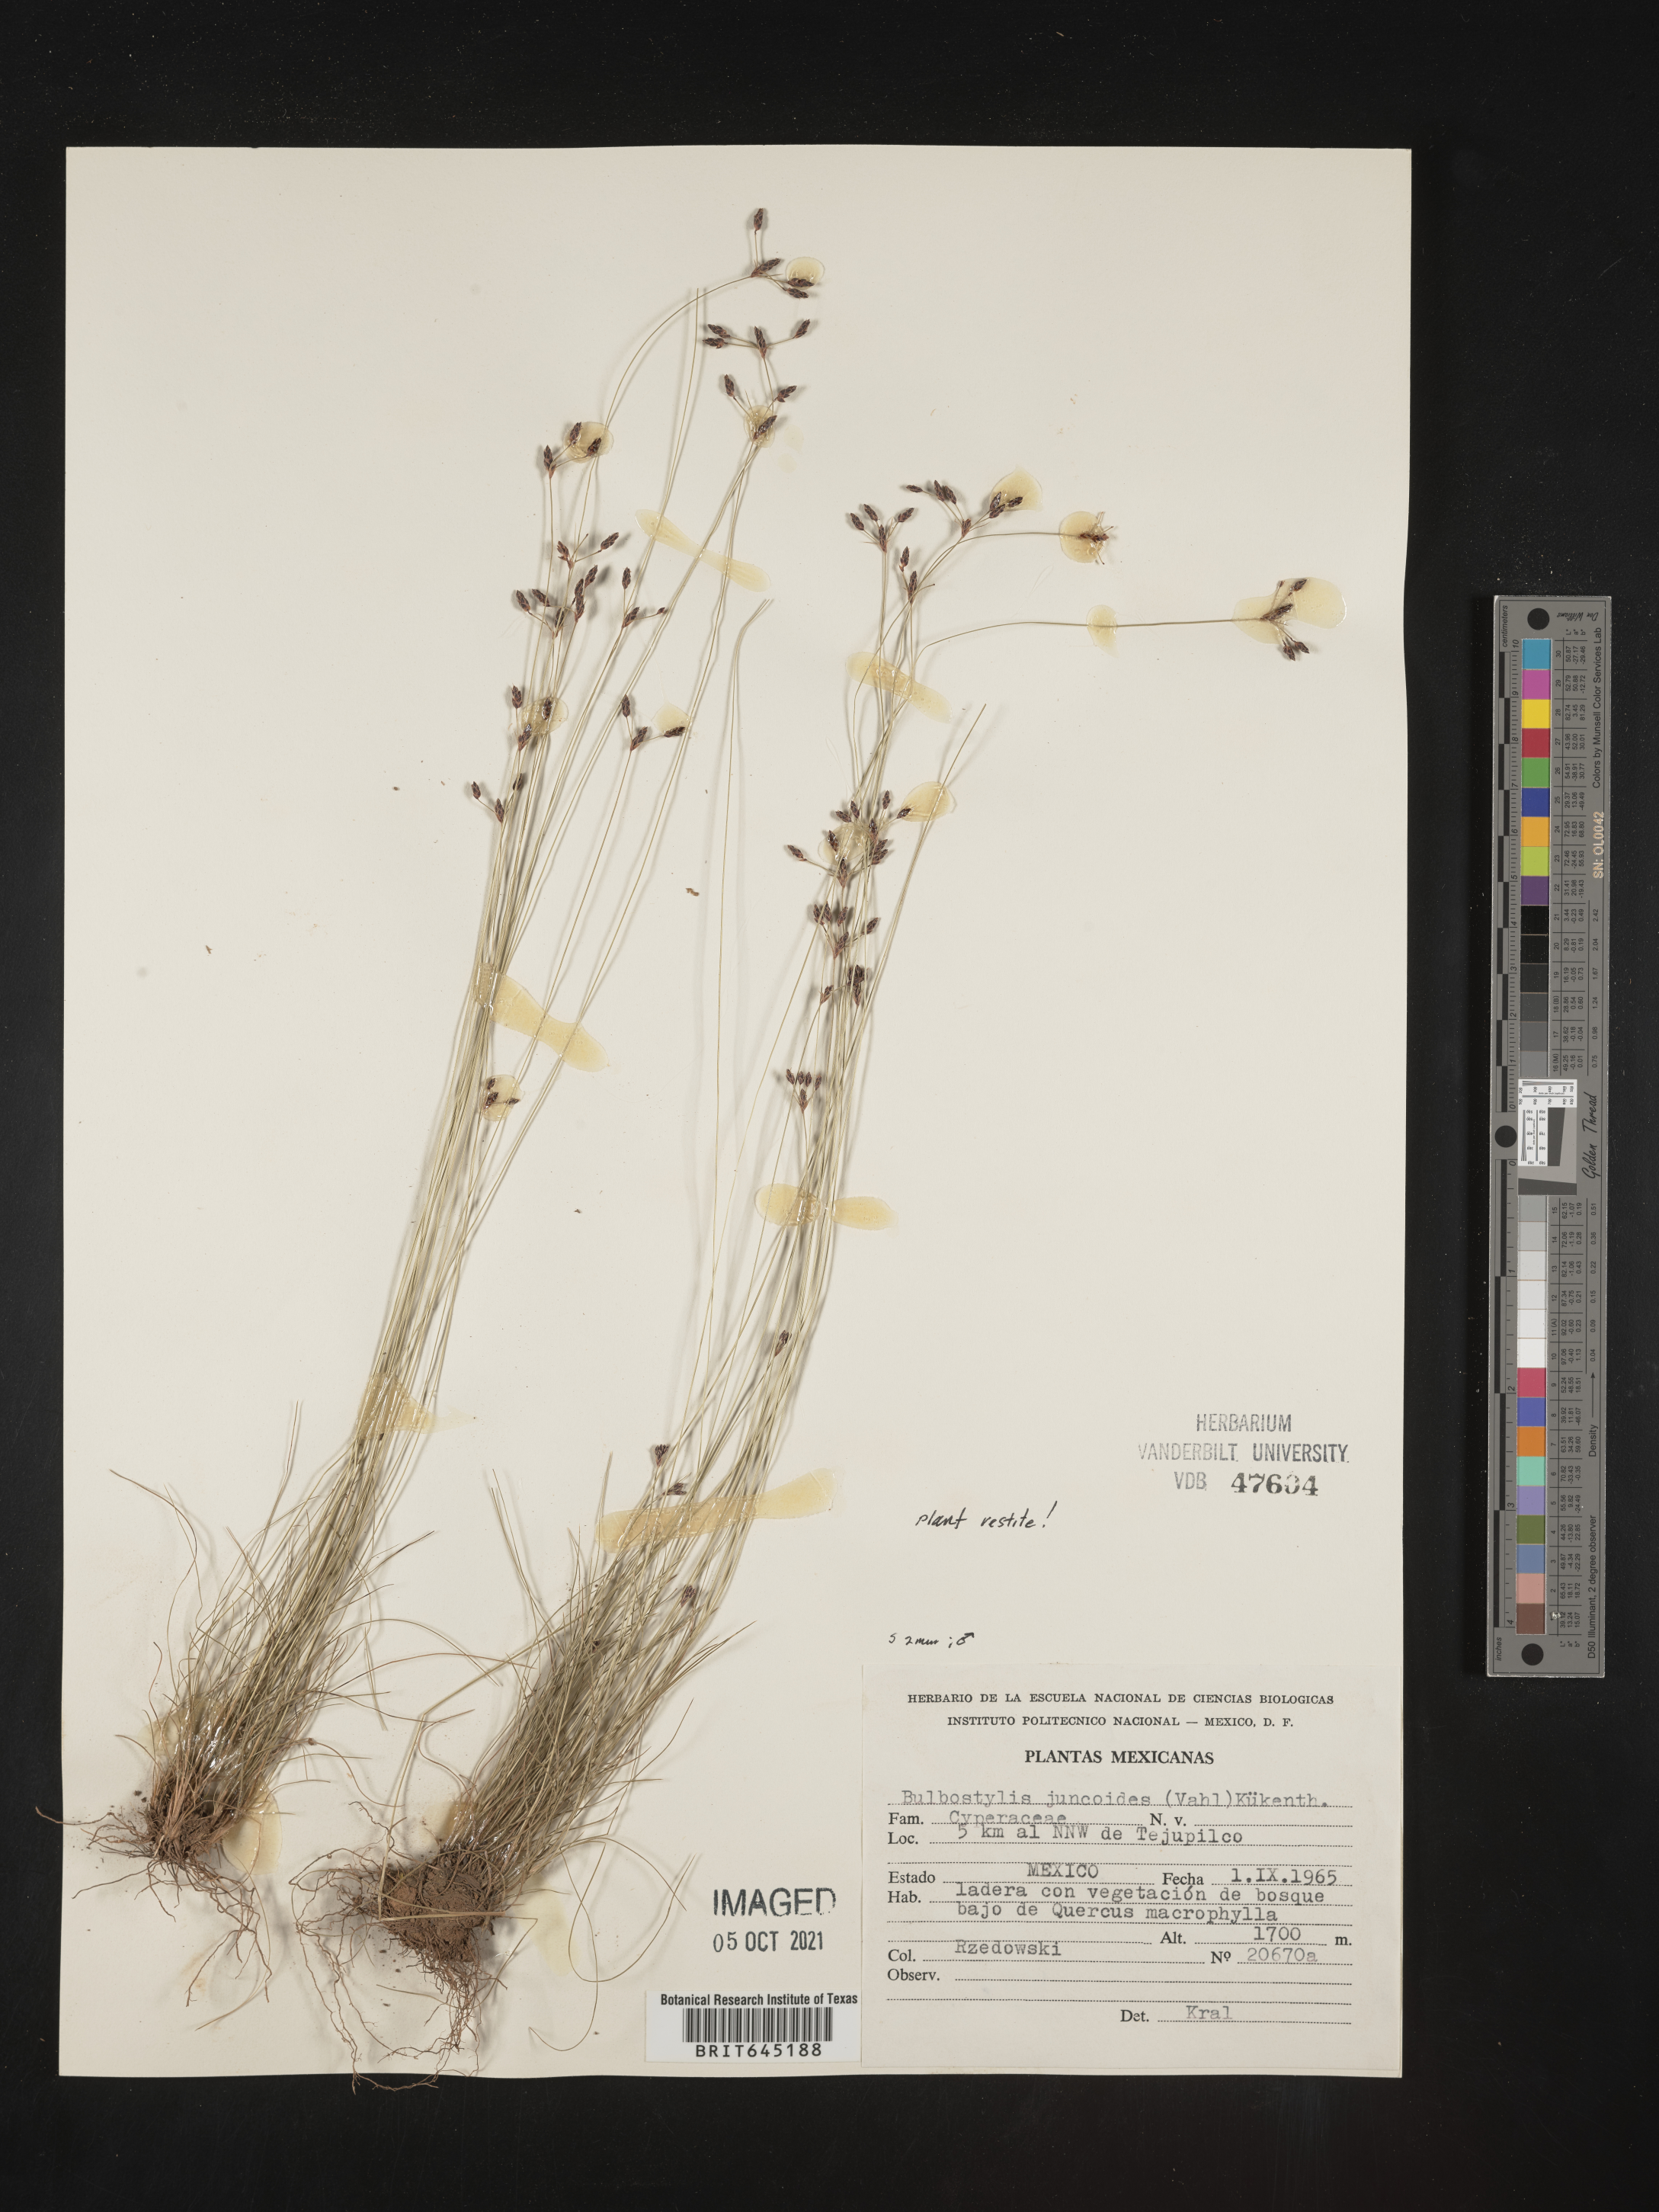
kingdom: Plantae
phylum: Tracheophyta
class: Liliopsida
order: Poales
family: Cyperaceae
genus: Bulbostylis
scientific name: Bulbostylis juncoides
